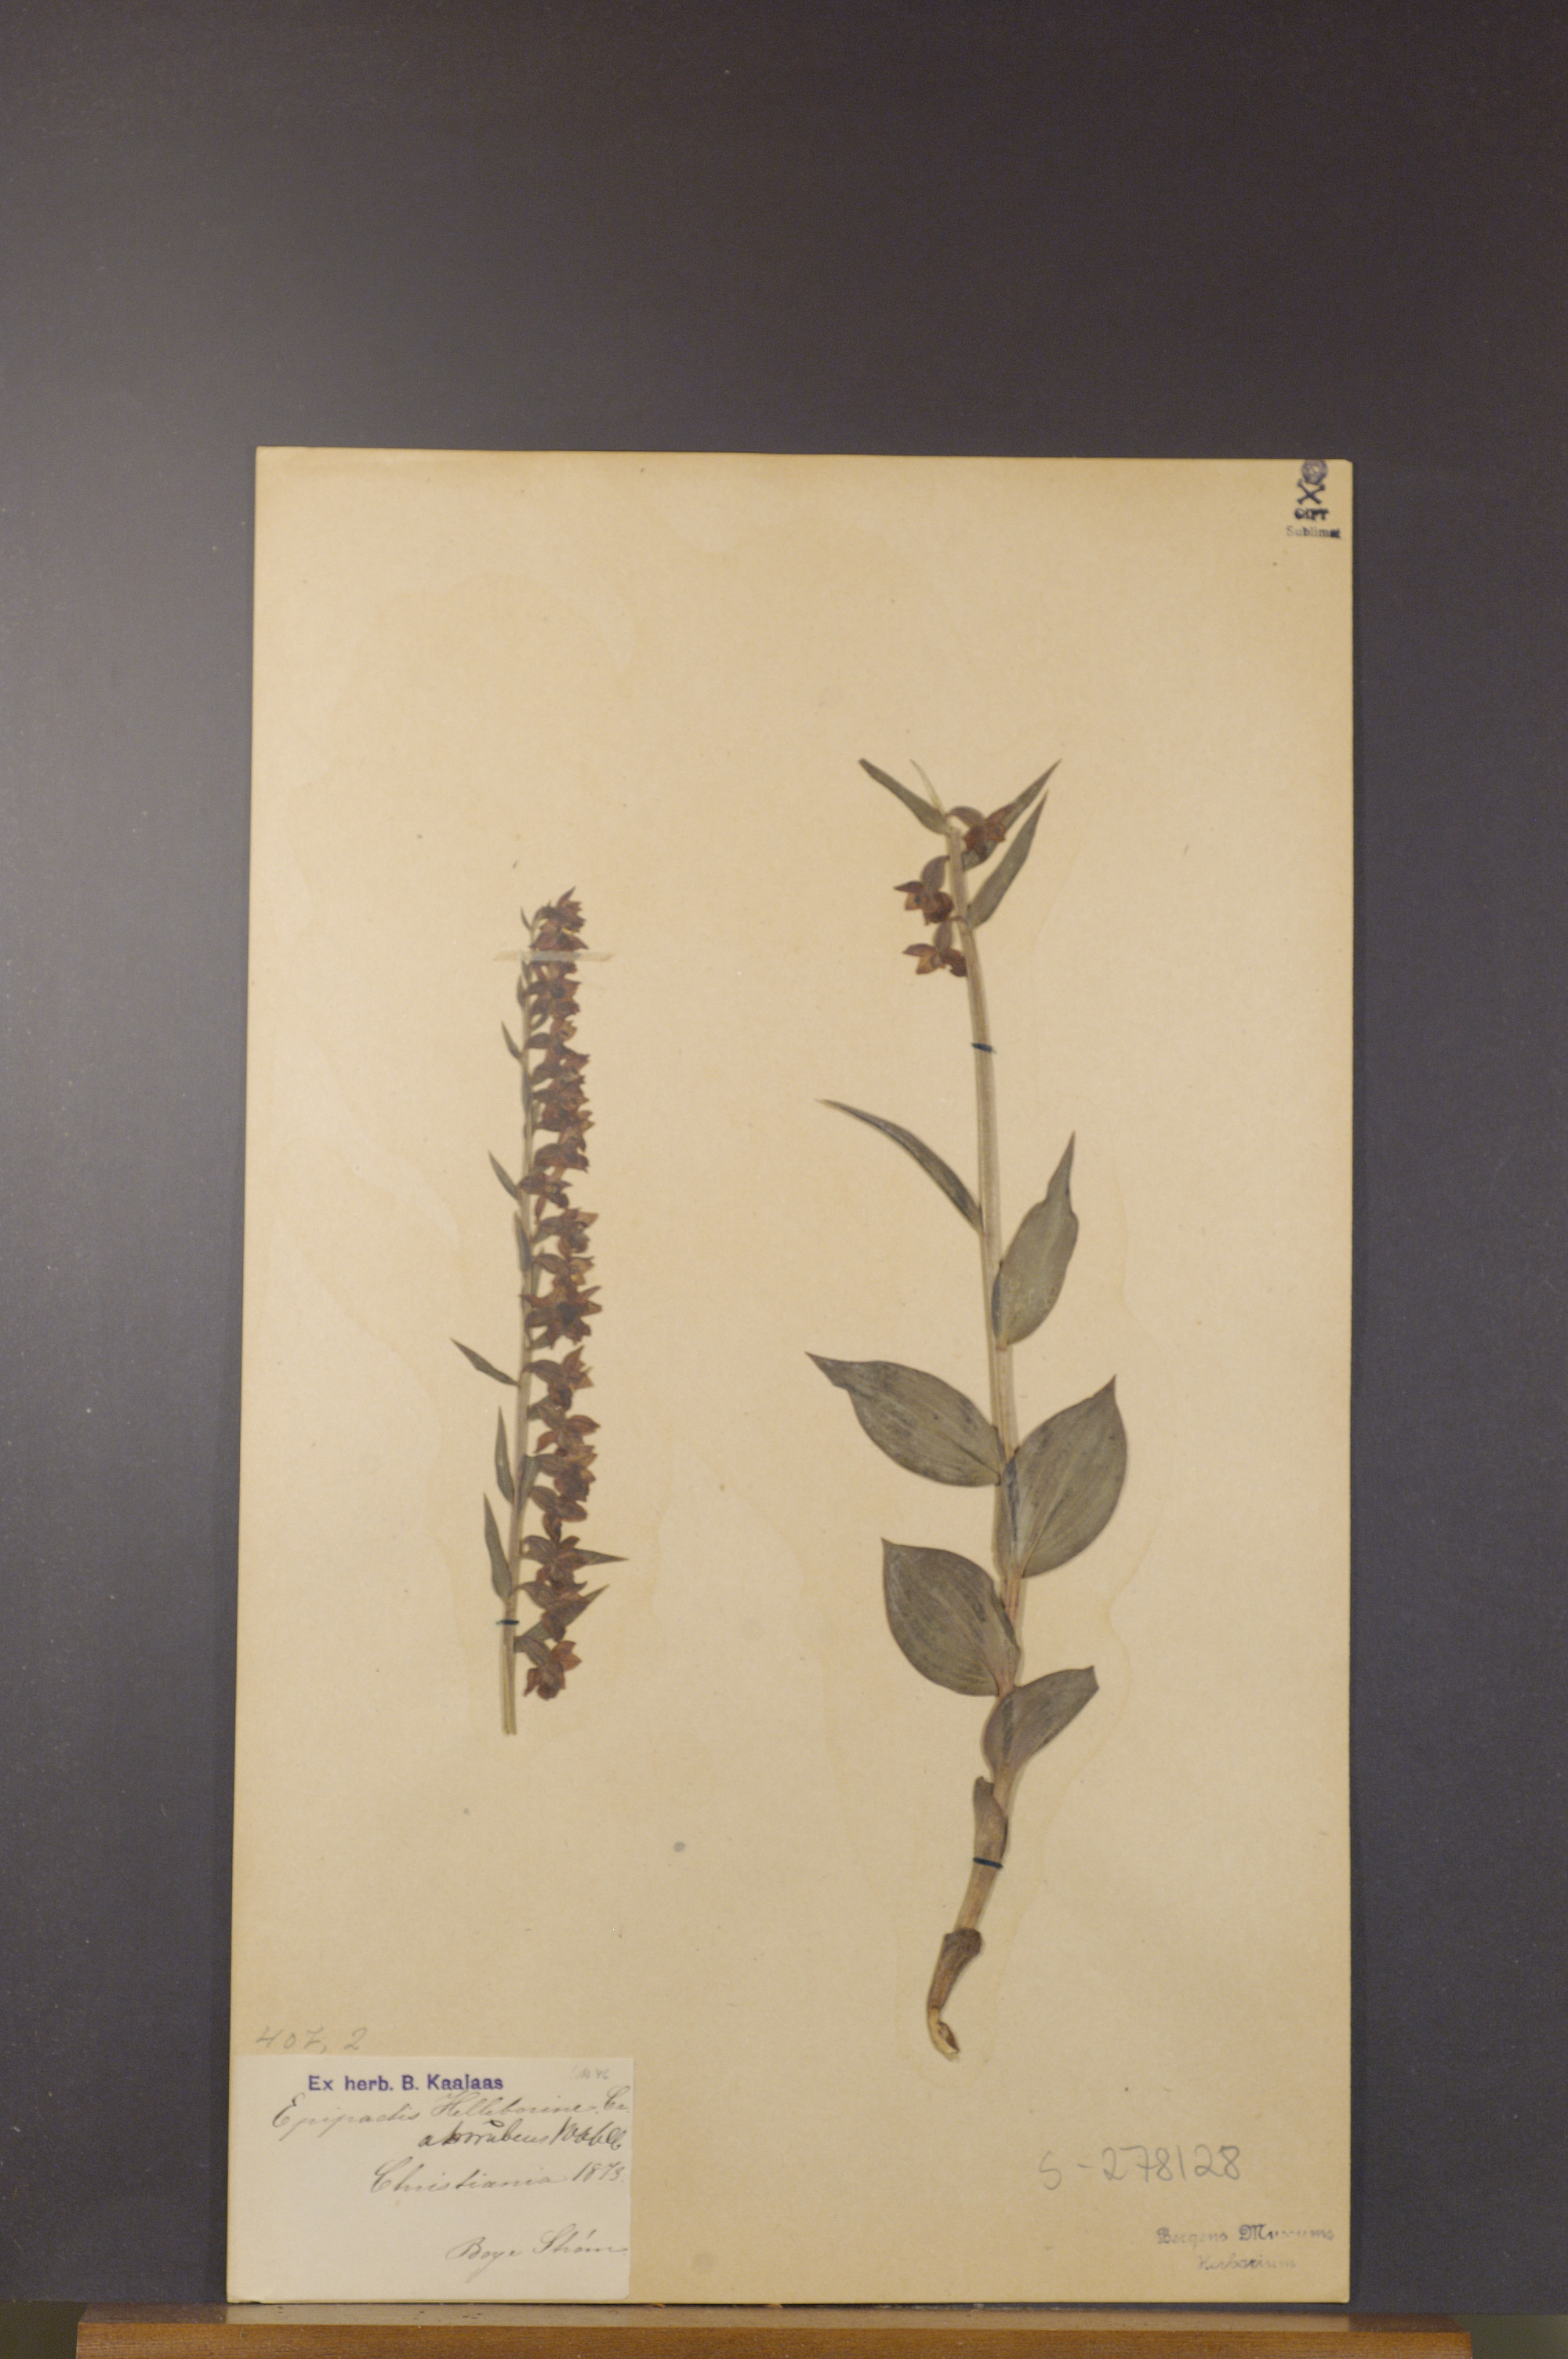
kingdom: Plantae
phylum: Tracheophyta
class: Liliopsida
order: Asparagales
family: Orchidaceae
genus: Epipactis
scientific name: Epipactis atrorubens
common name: Dark-red helleborine
